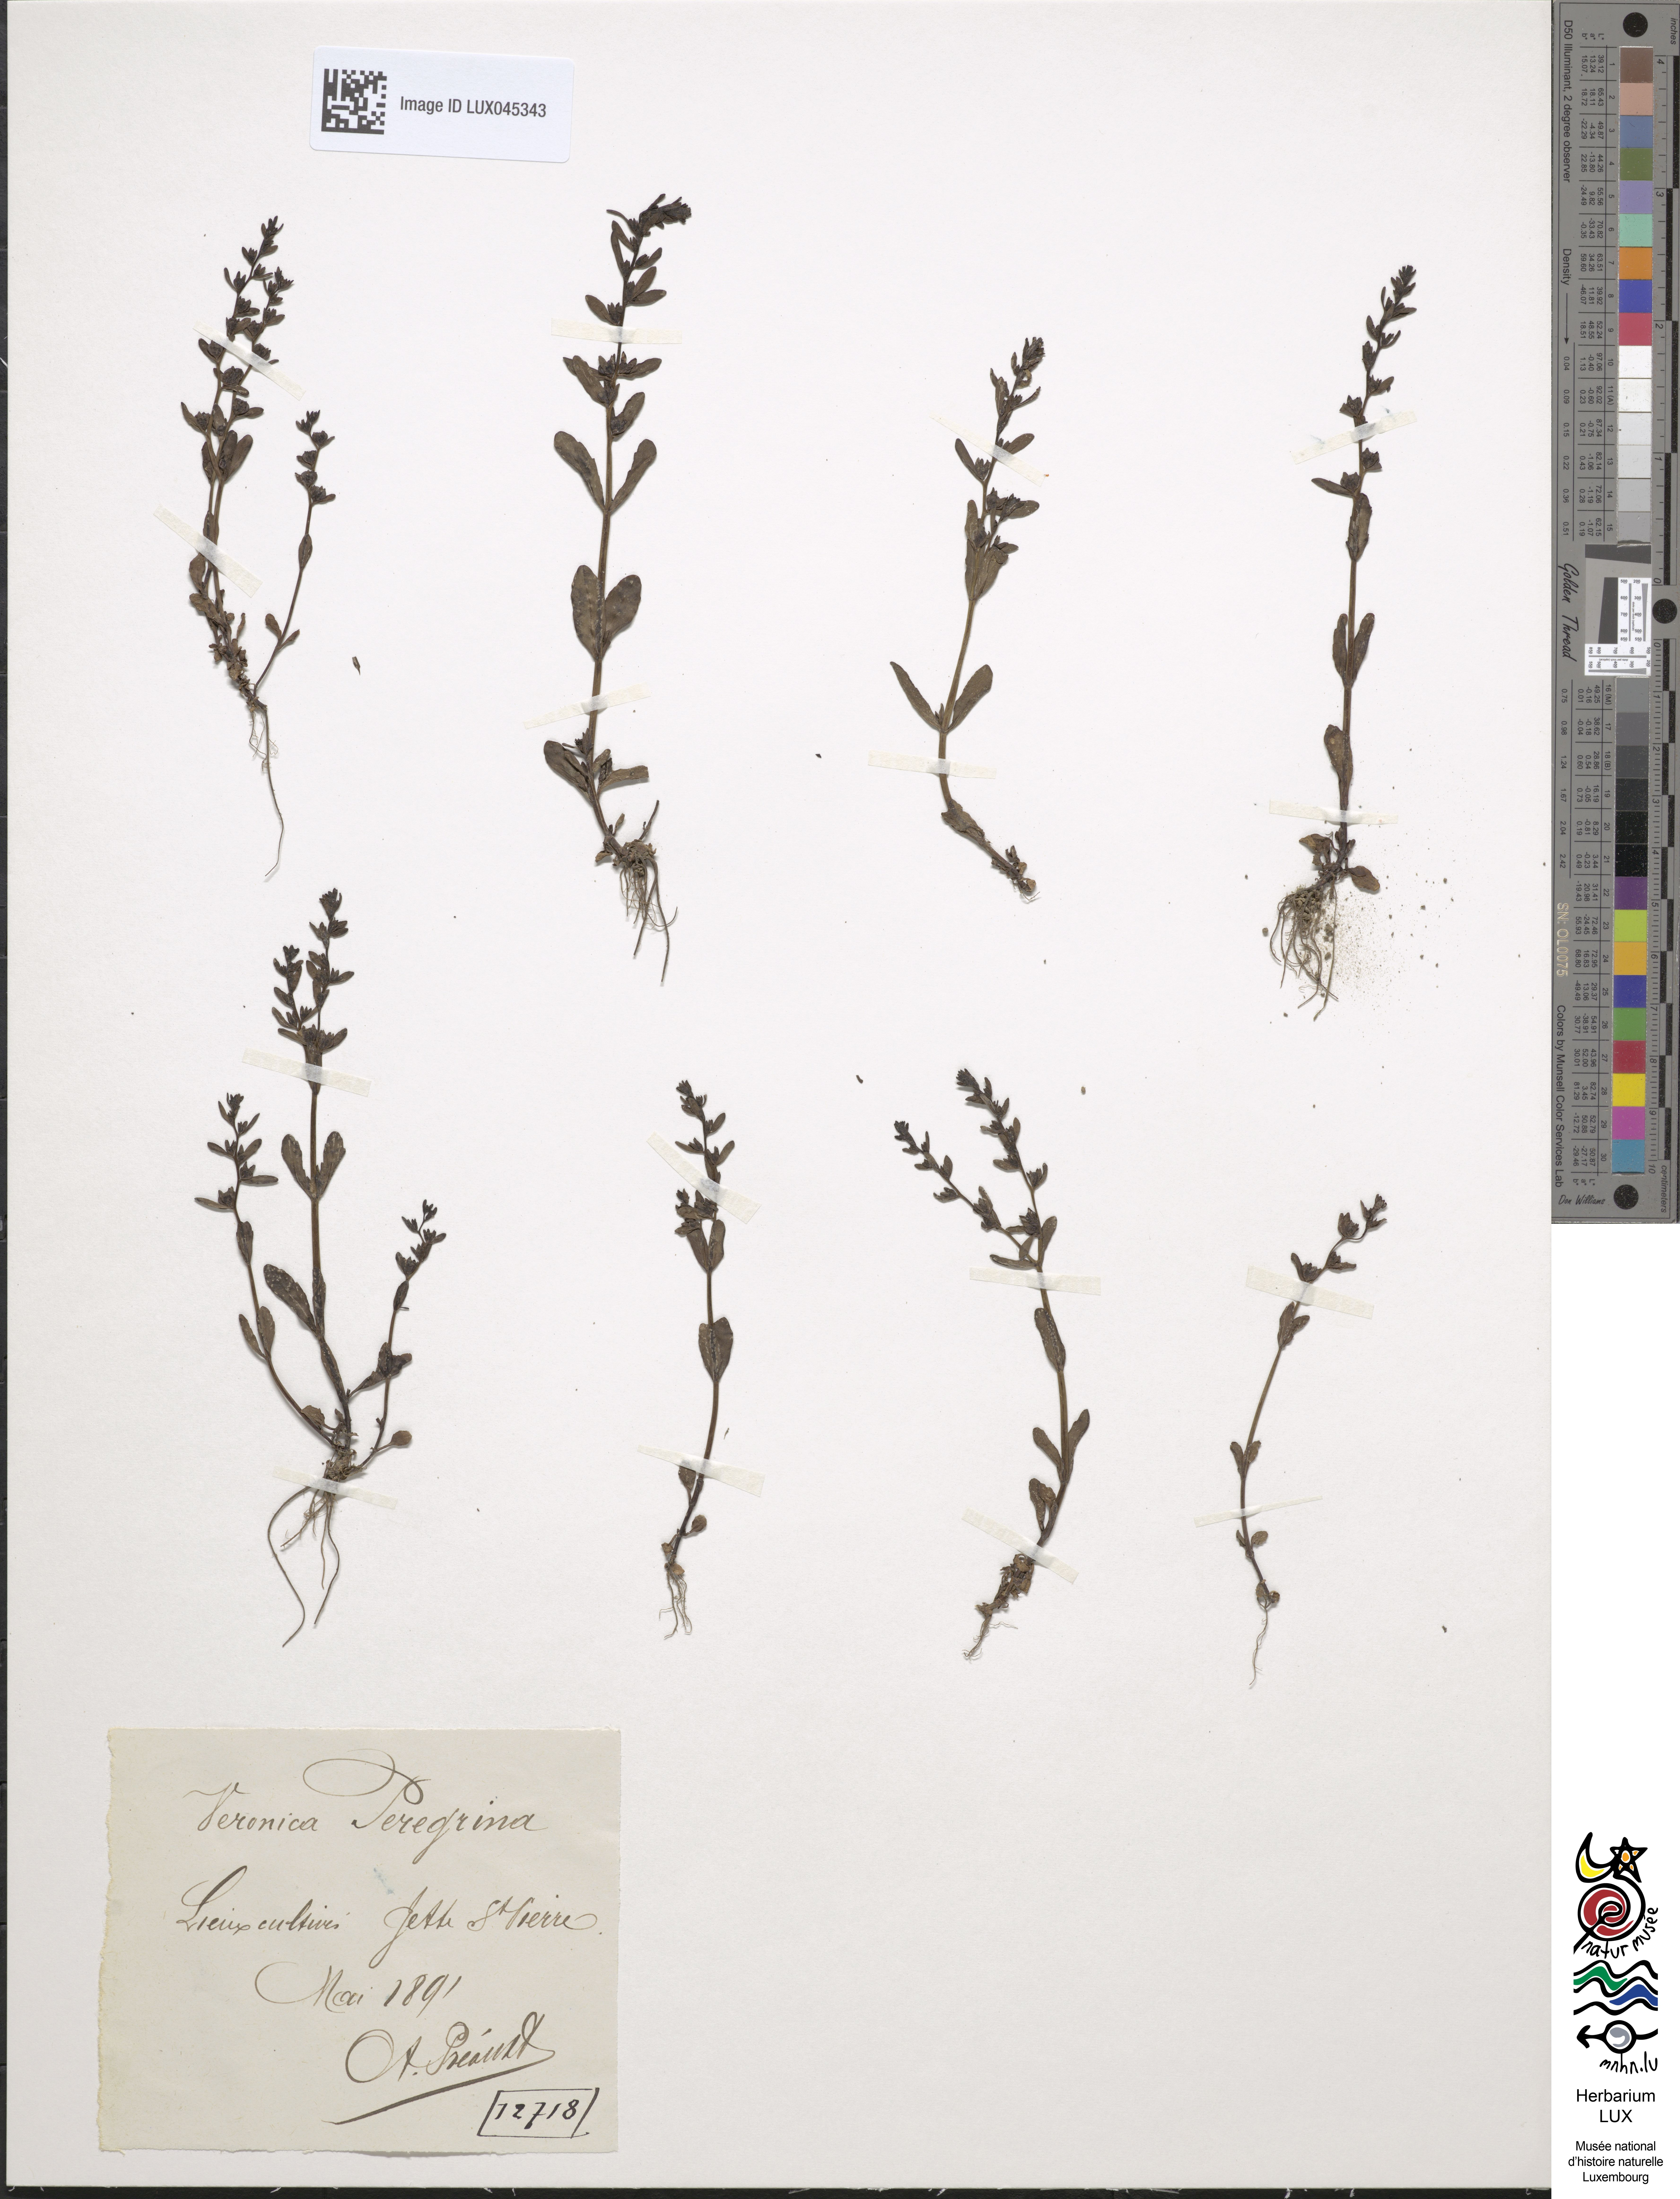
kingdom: Plantae
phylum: Tracheophyta
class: Magnoliopsida
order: Lamiales
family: Plantaginaceae
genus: Veronica
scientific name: Veronica peregrina
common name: Neckweed
